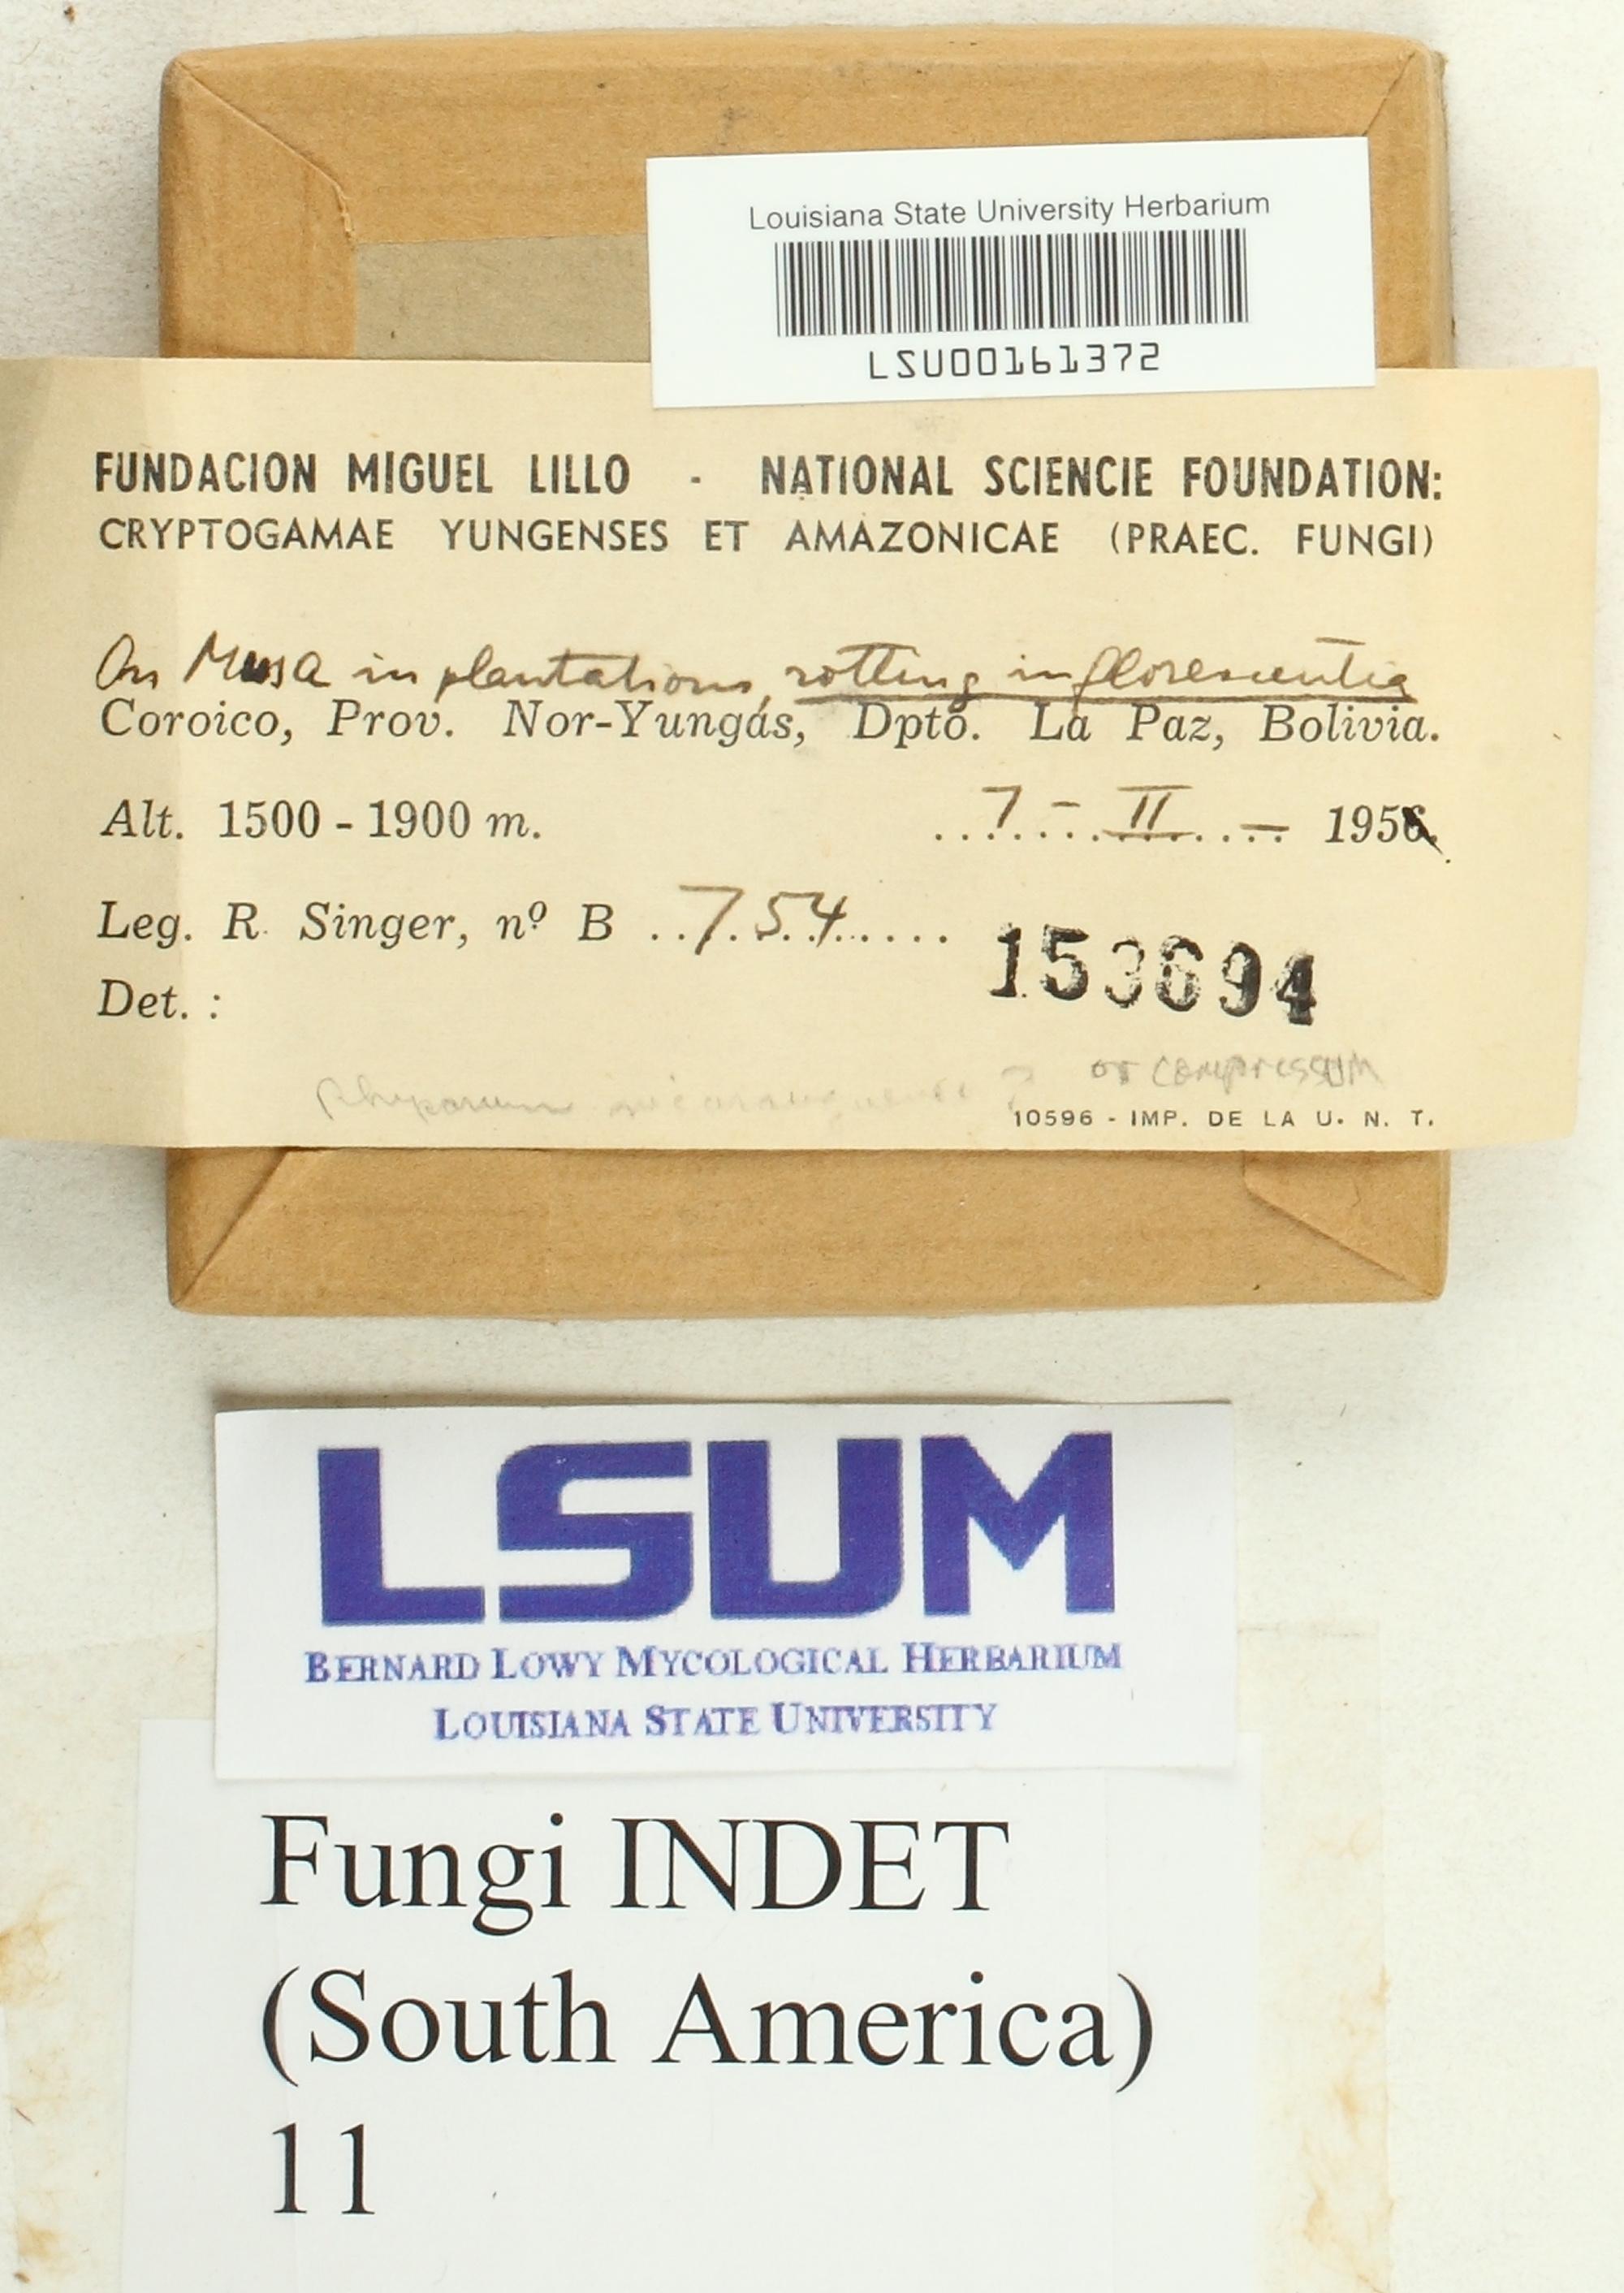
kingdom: Fungi
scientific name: Fungi
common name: Fungi
